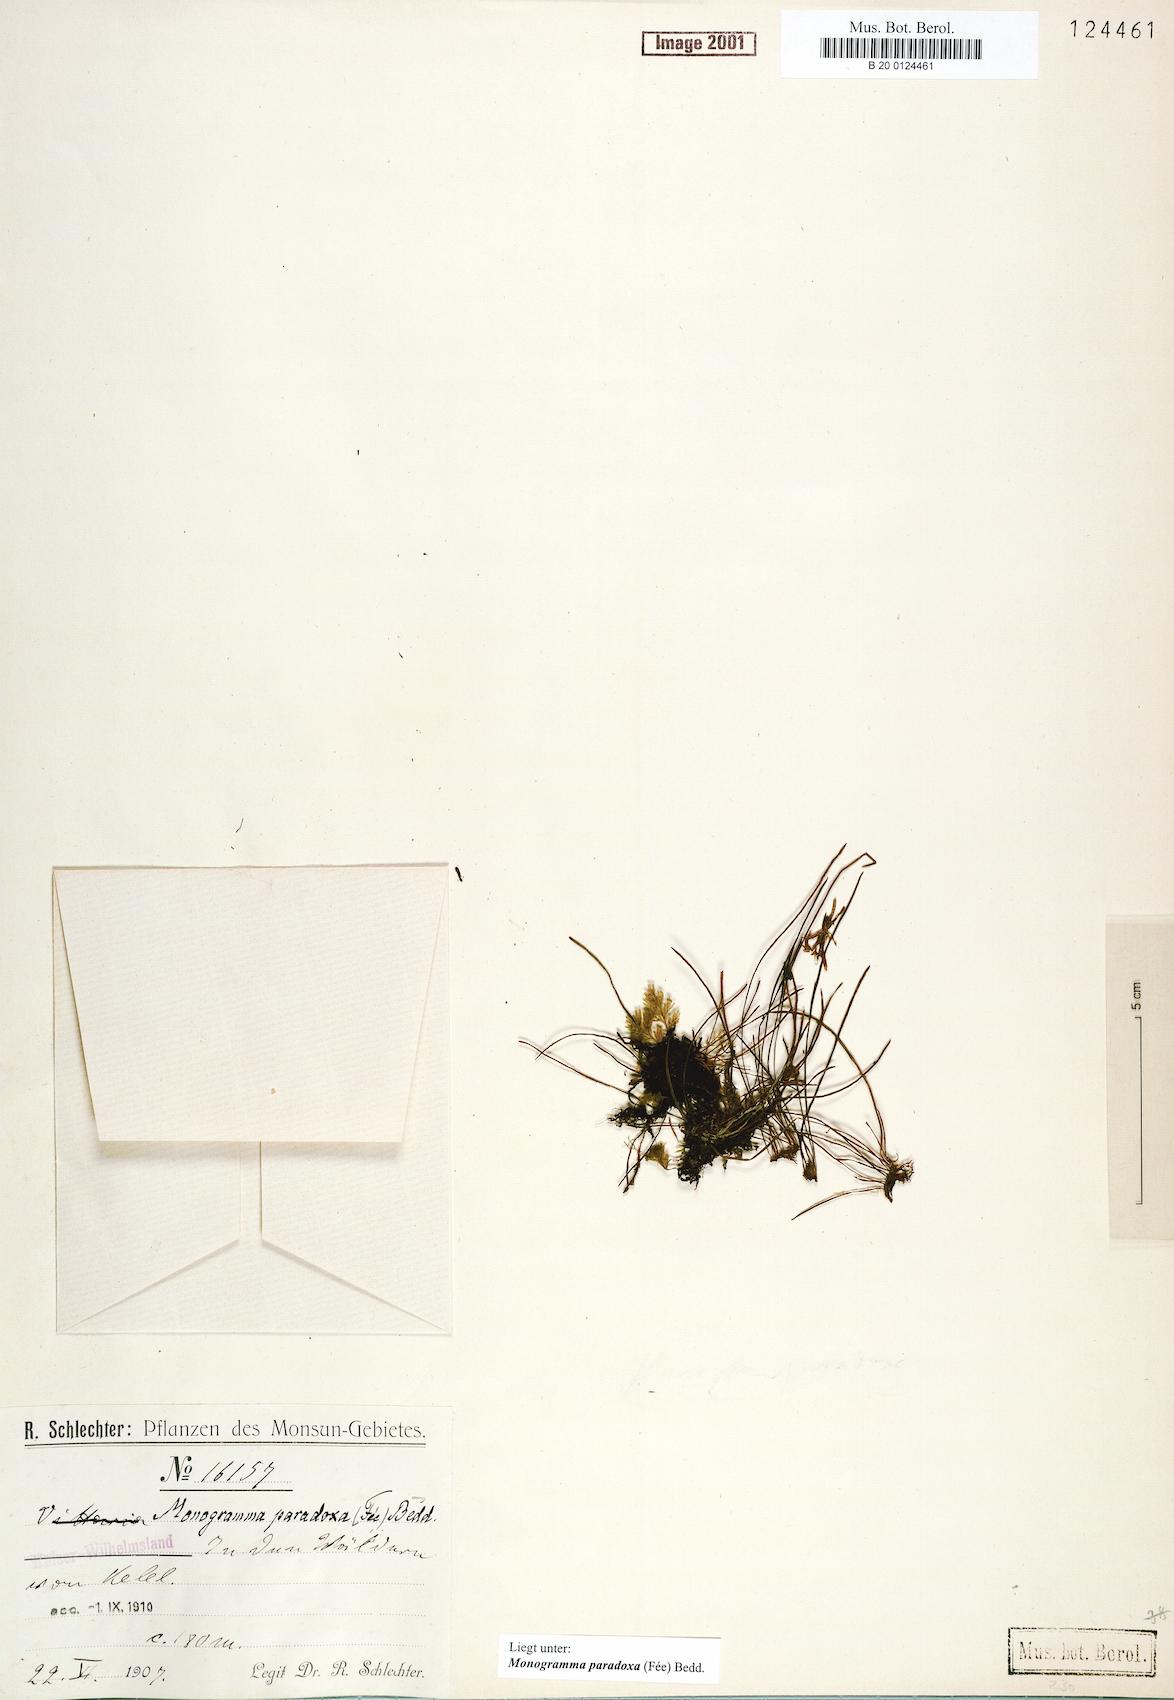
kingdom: Plantae
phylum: Tracheophyta
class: Polypodiopsida
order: Polypodiales
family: Pteridaceae
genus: Vaginularia
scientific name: Vaginularia paradoxa
